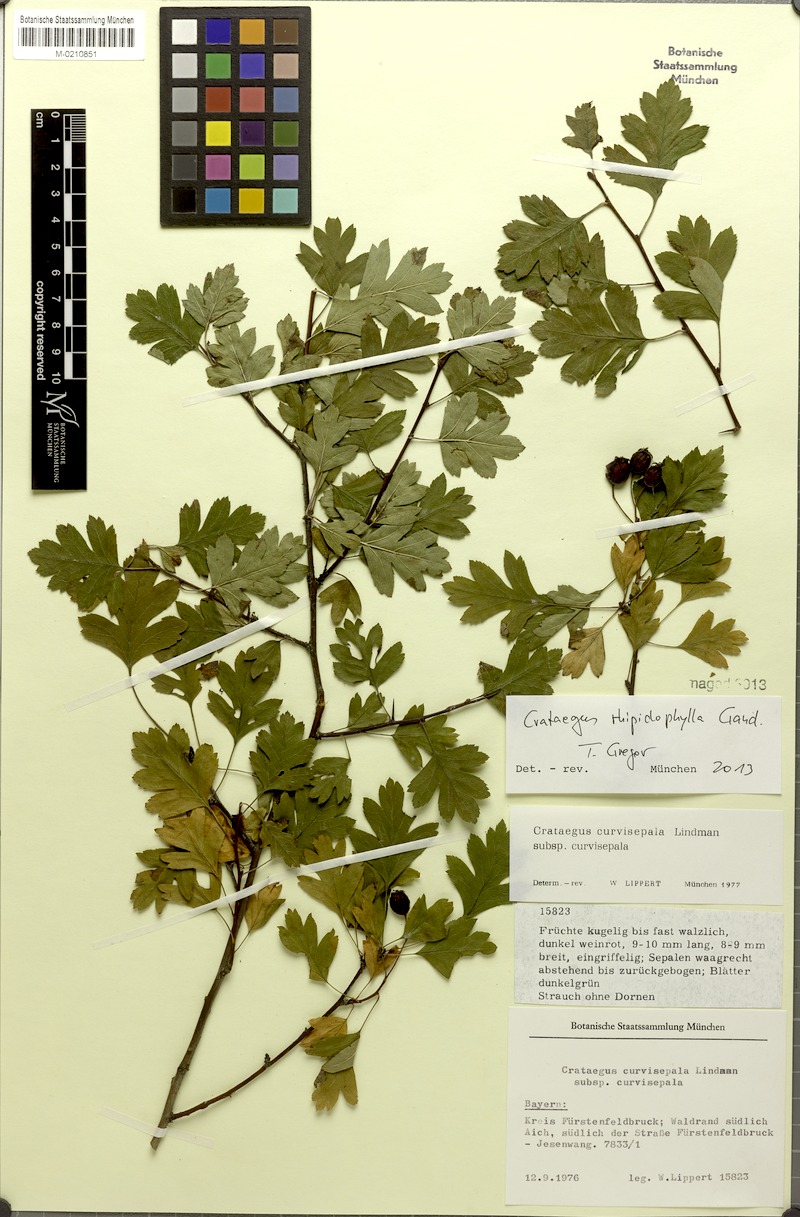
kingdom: Plantae
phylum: Tracheophyta
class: Magnoliopsida
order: Rosales
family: Rosaceae
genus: Crataegus
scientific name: Crataegus rhipidophylla
